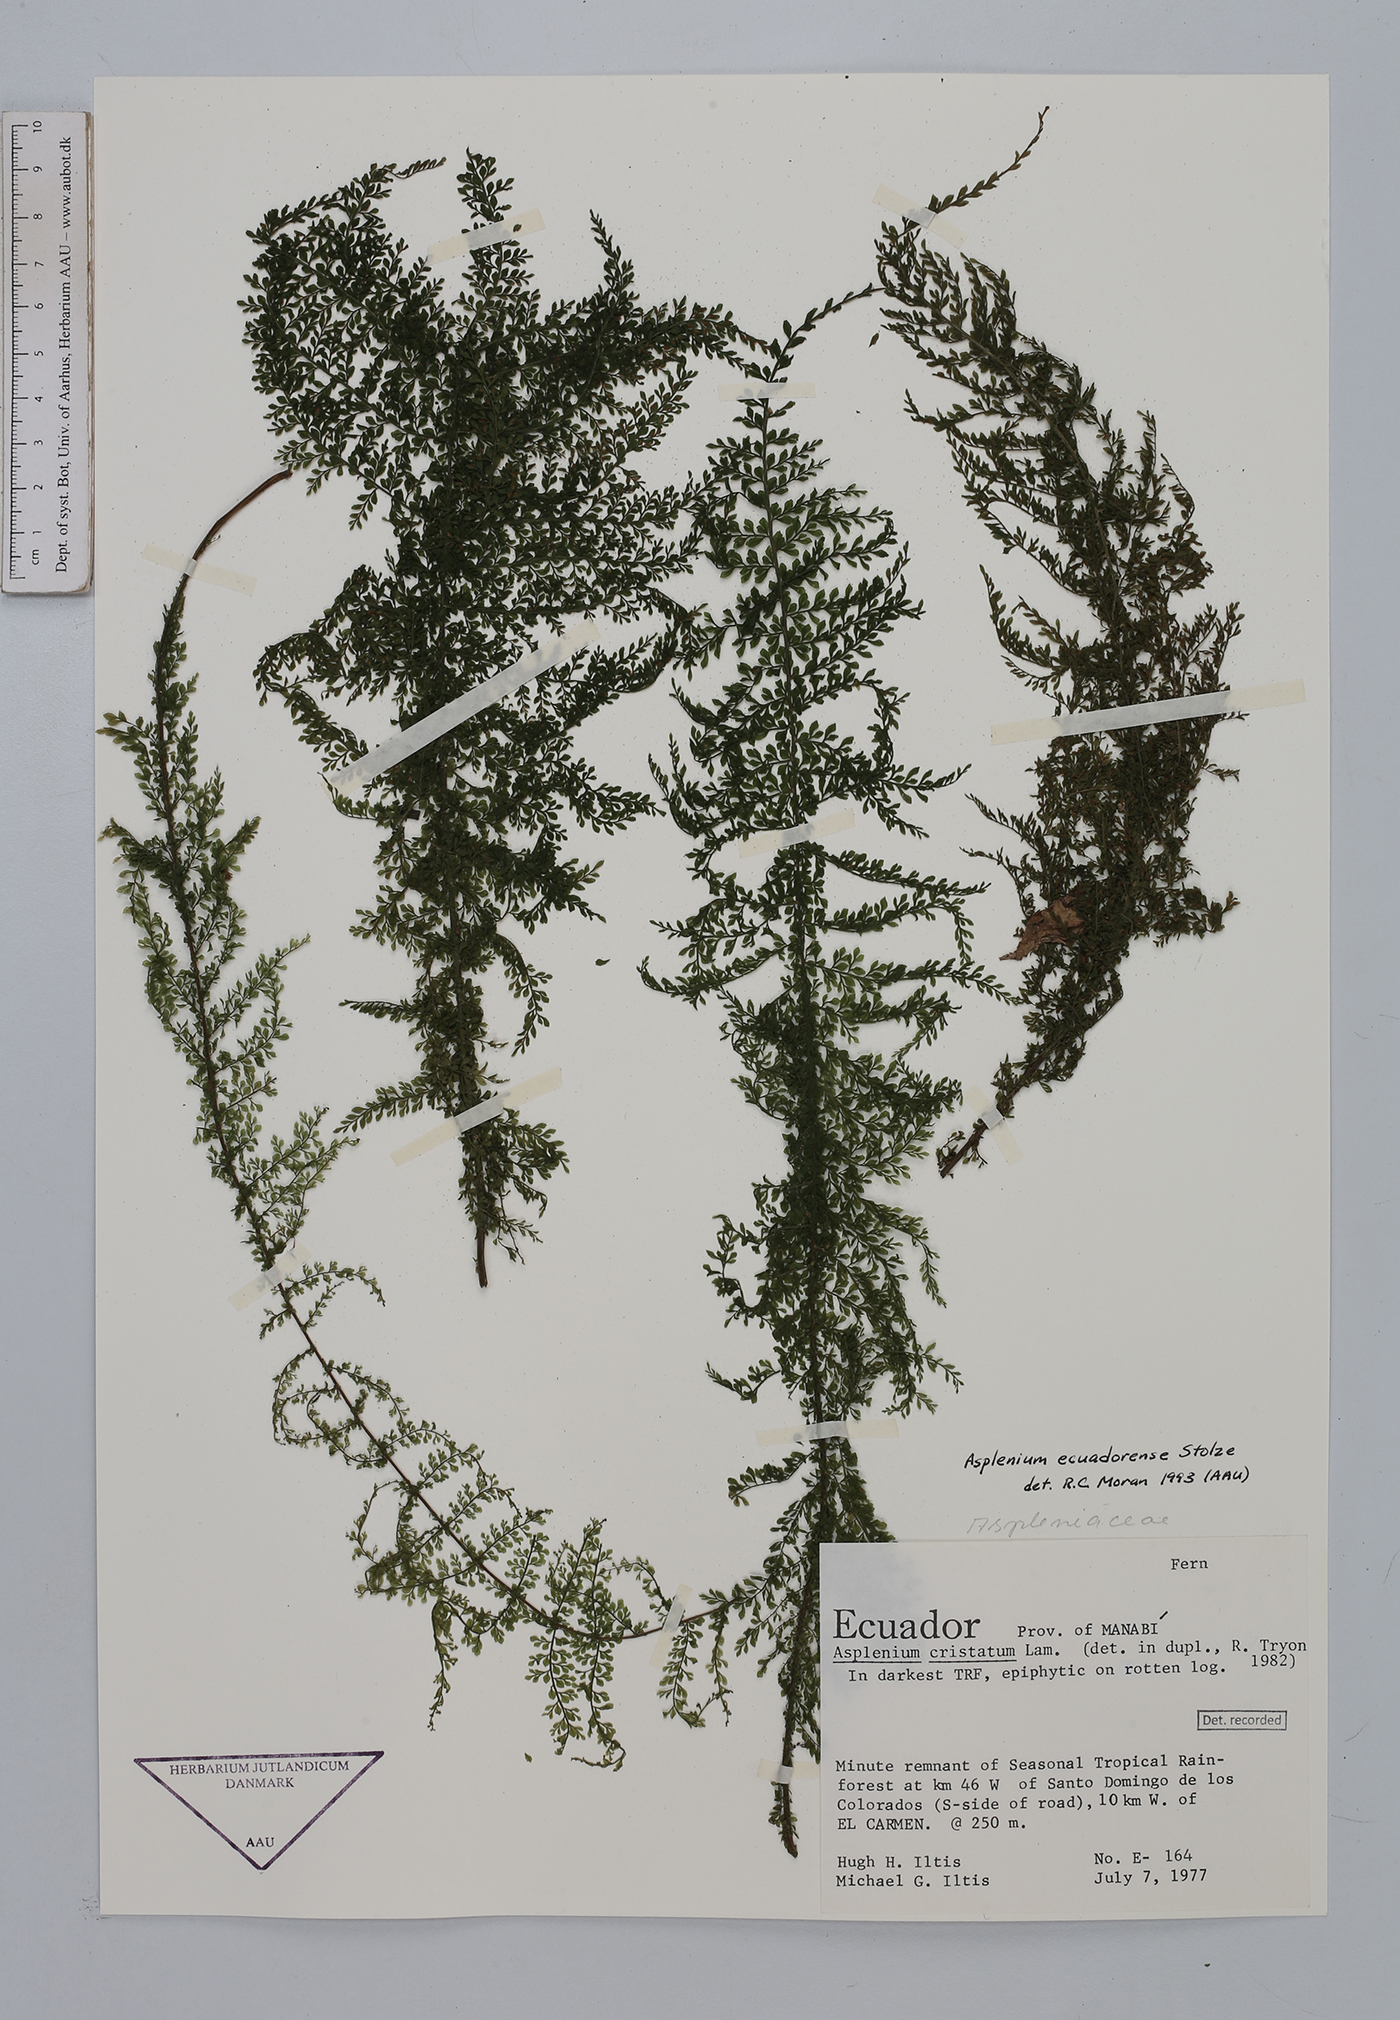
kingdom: Plantae
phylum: Tracheophyta
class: Polypodiopsida
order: Polypodiales
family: Aspleniaceae
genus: Asplenium
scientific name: Asplenium ecuadorense
